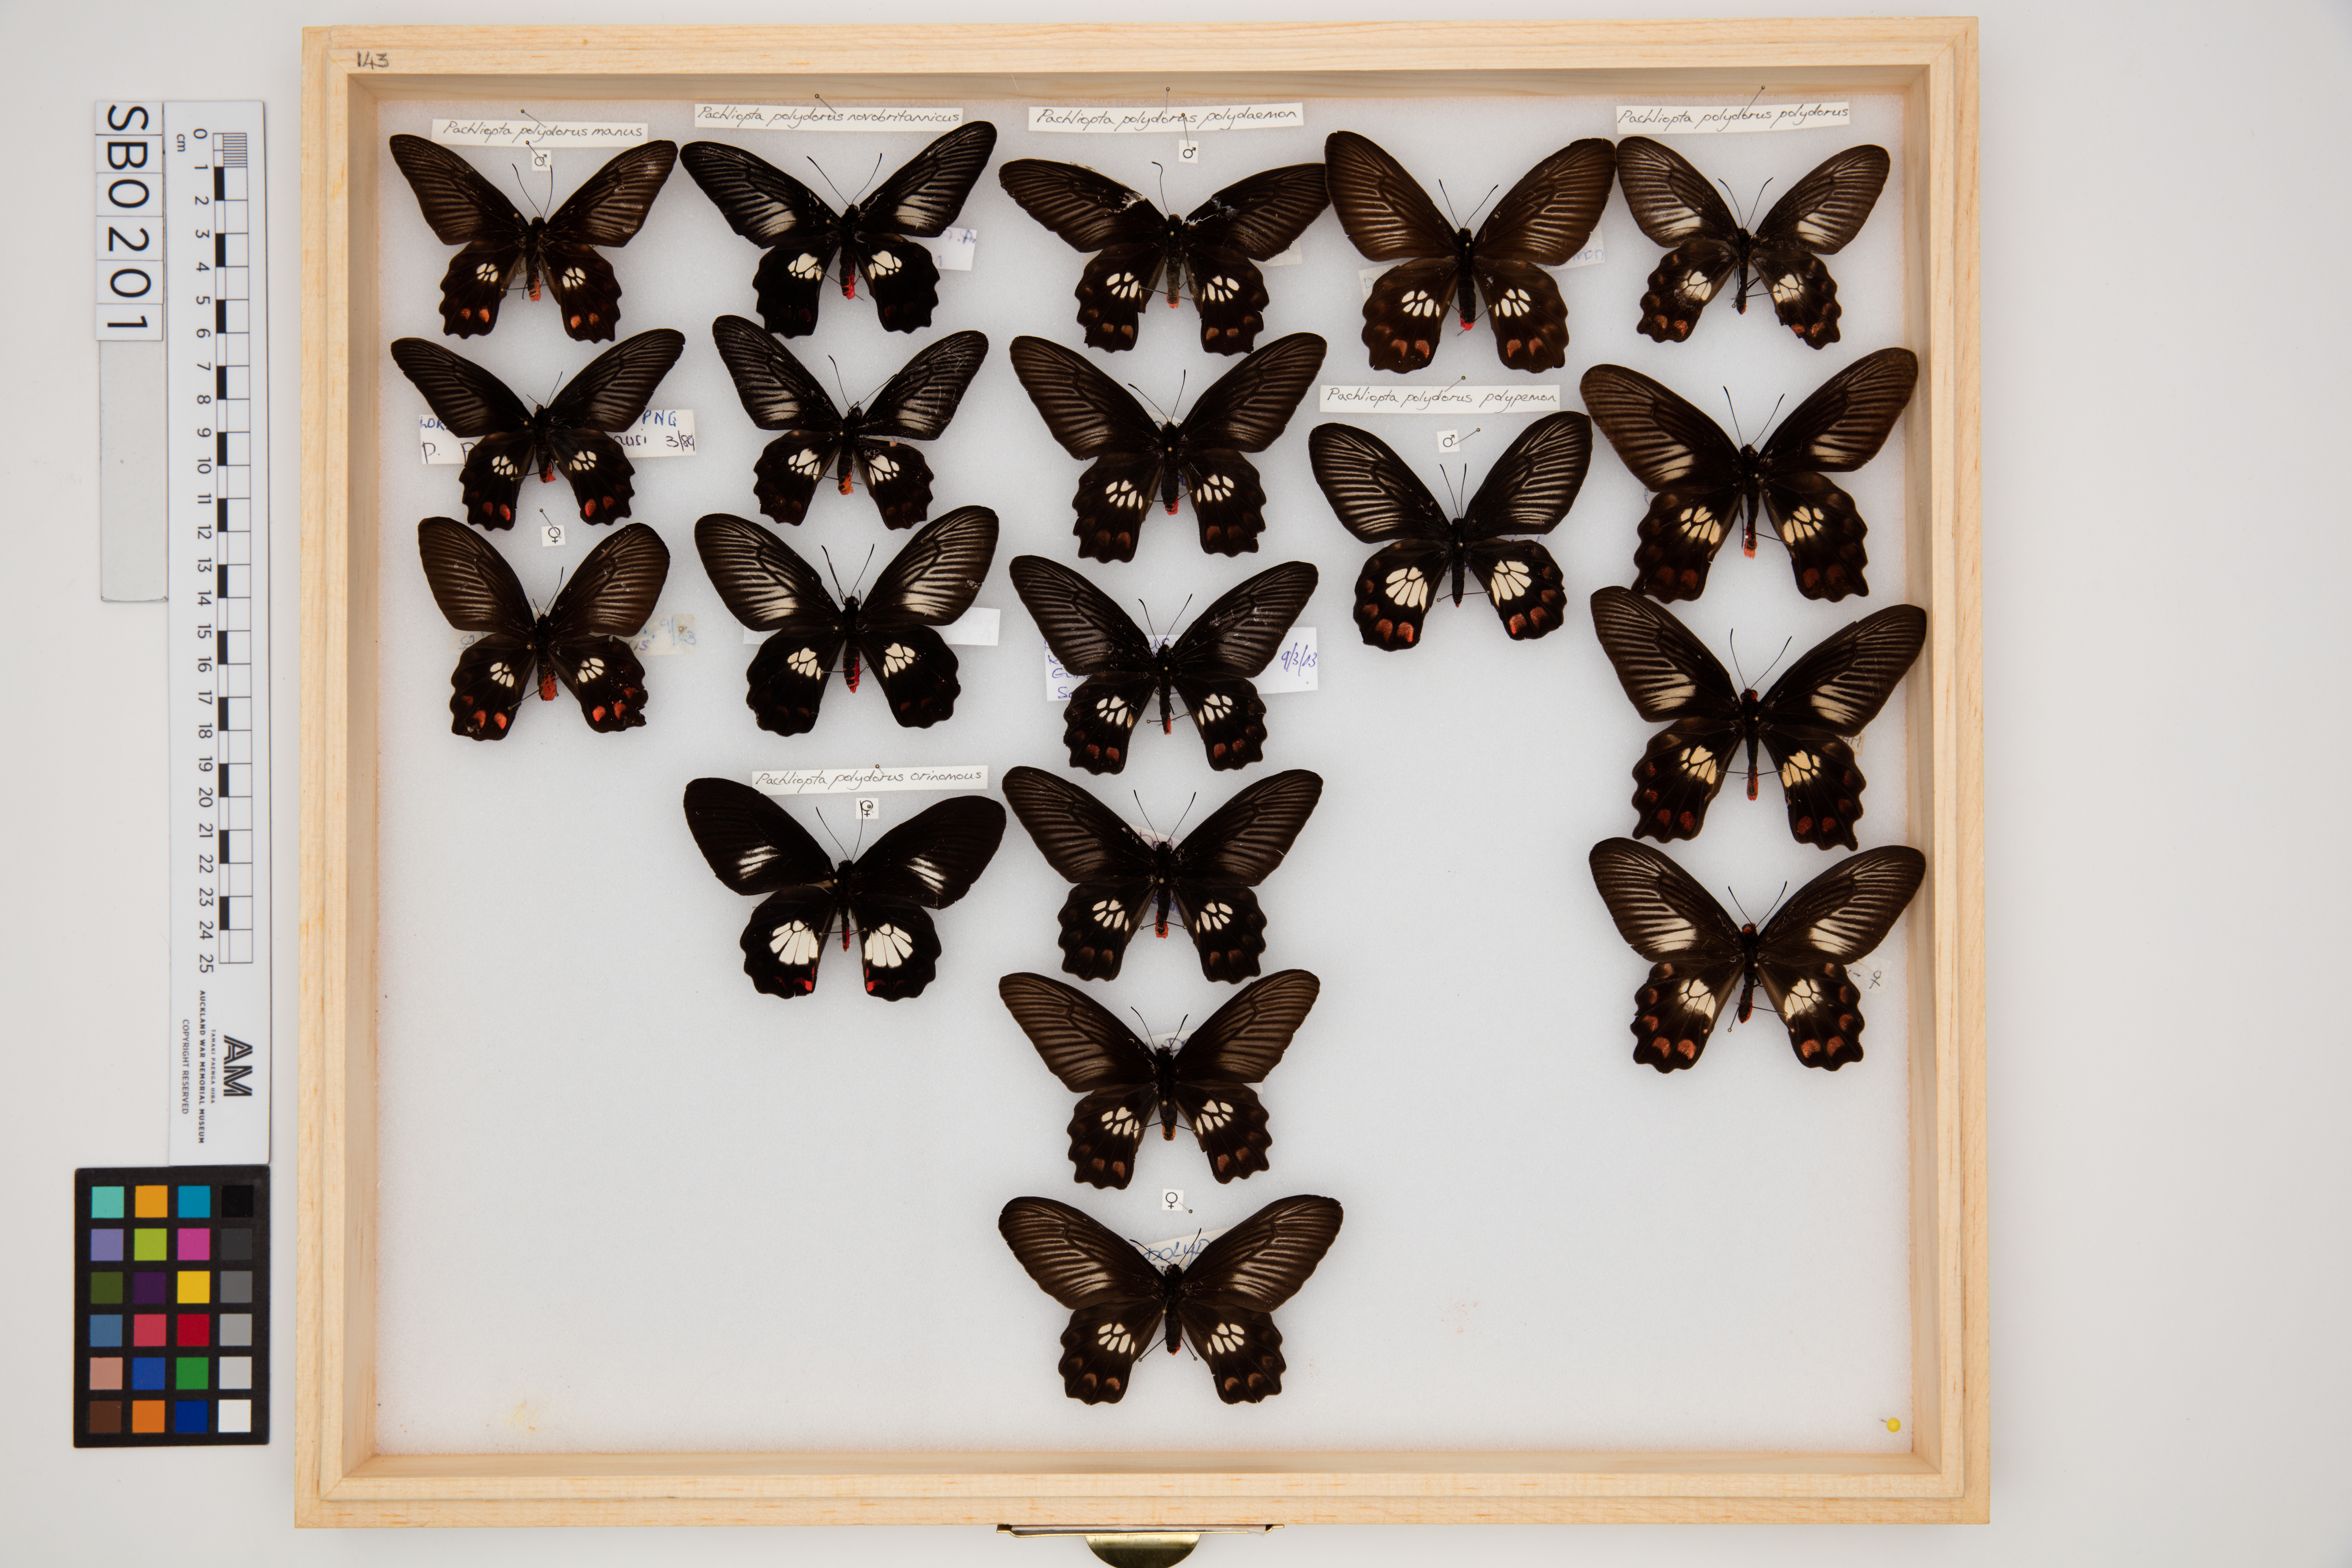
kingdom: Animalia
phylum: Arthropoda
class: Insecta
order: Lepidoptera
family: Papilionidae
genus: Pachliopta
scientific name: Pachliopta polydorus
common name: Red-bodied swallowtail
